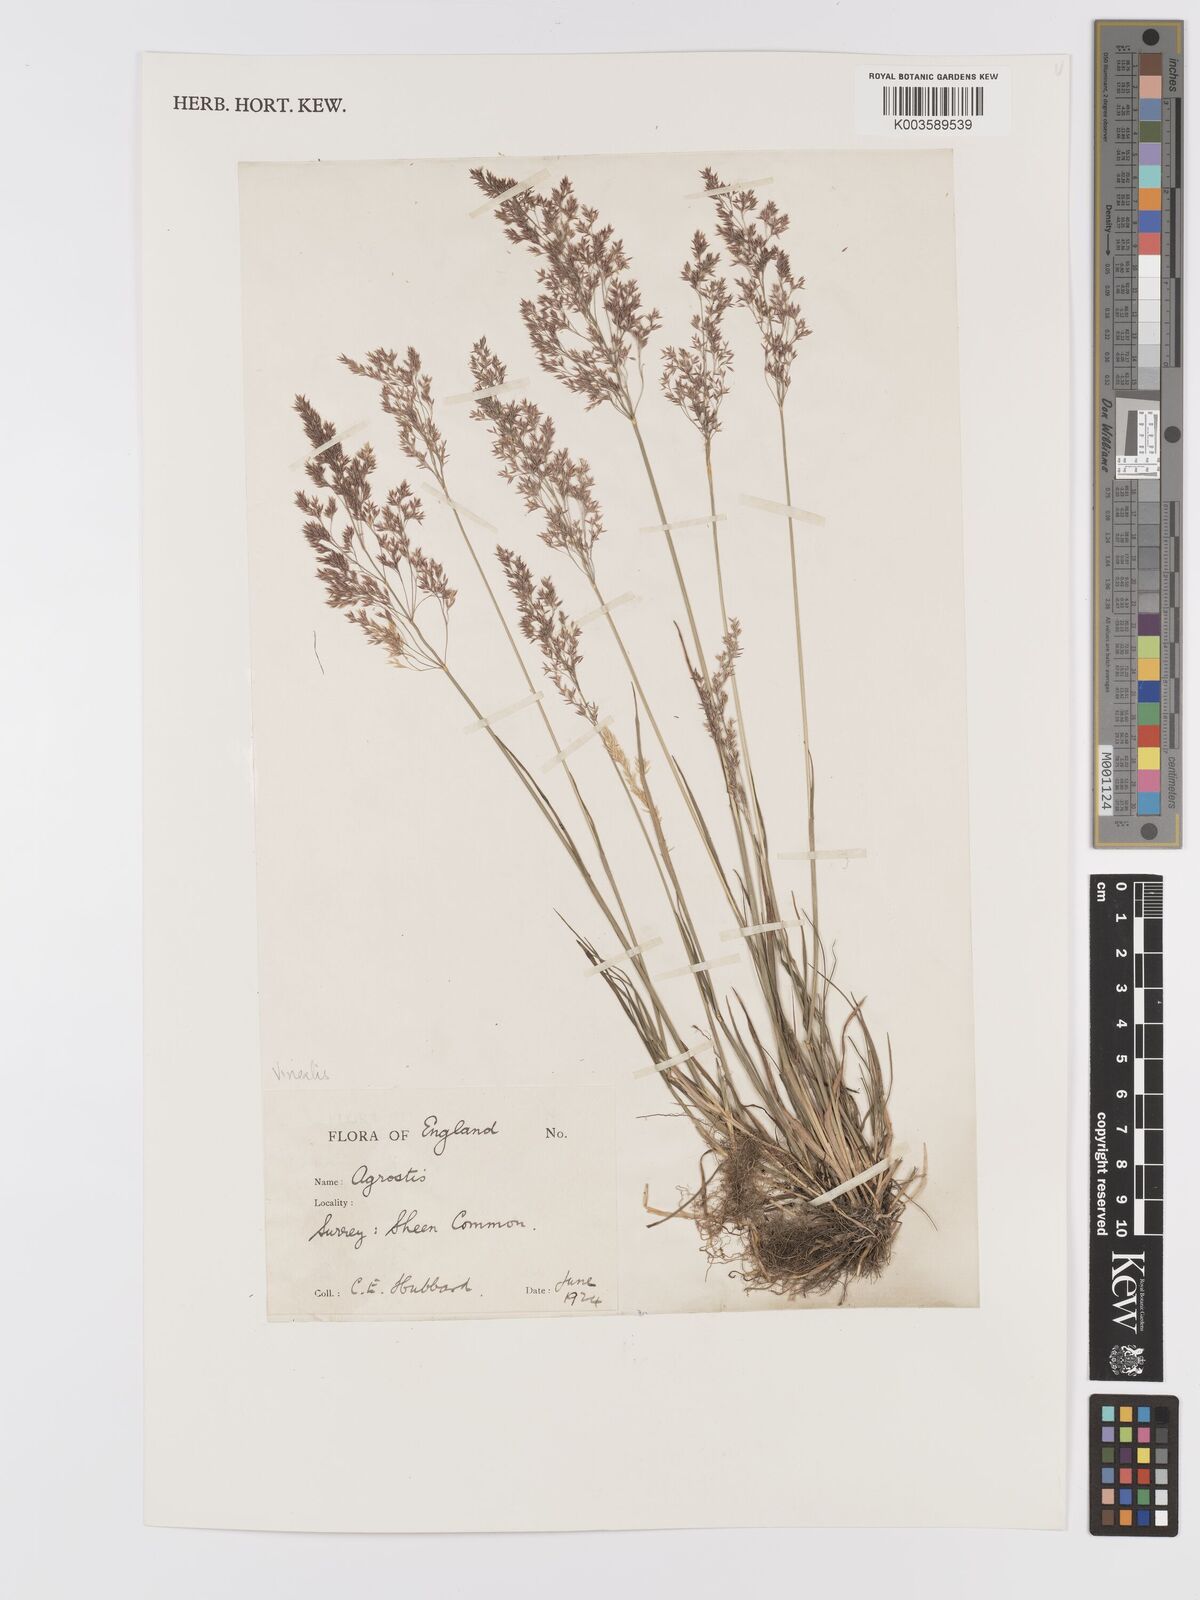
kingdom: Plantae
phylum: Tracheophyta
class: Liliopsida
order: Poales
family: Poaceae
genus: Agrostis
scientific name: Agrostis
